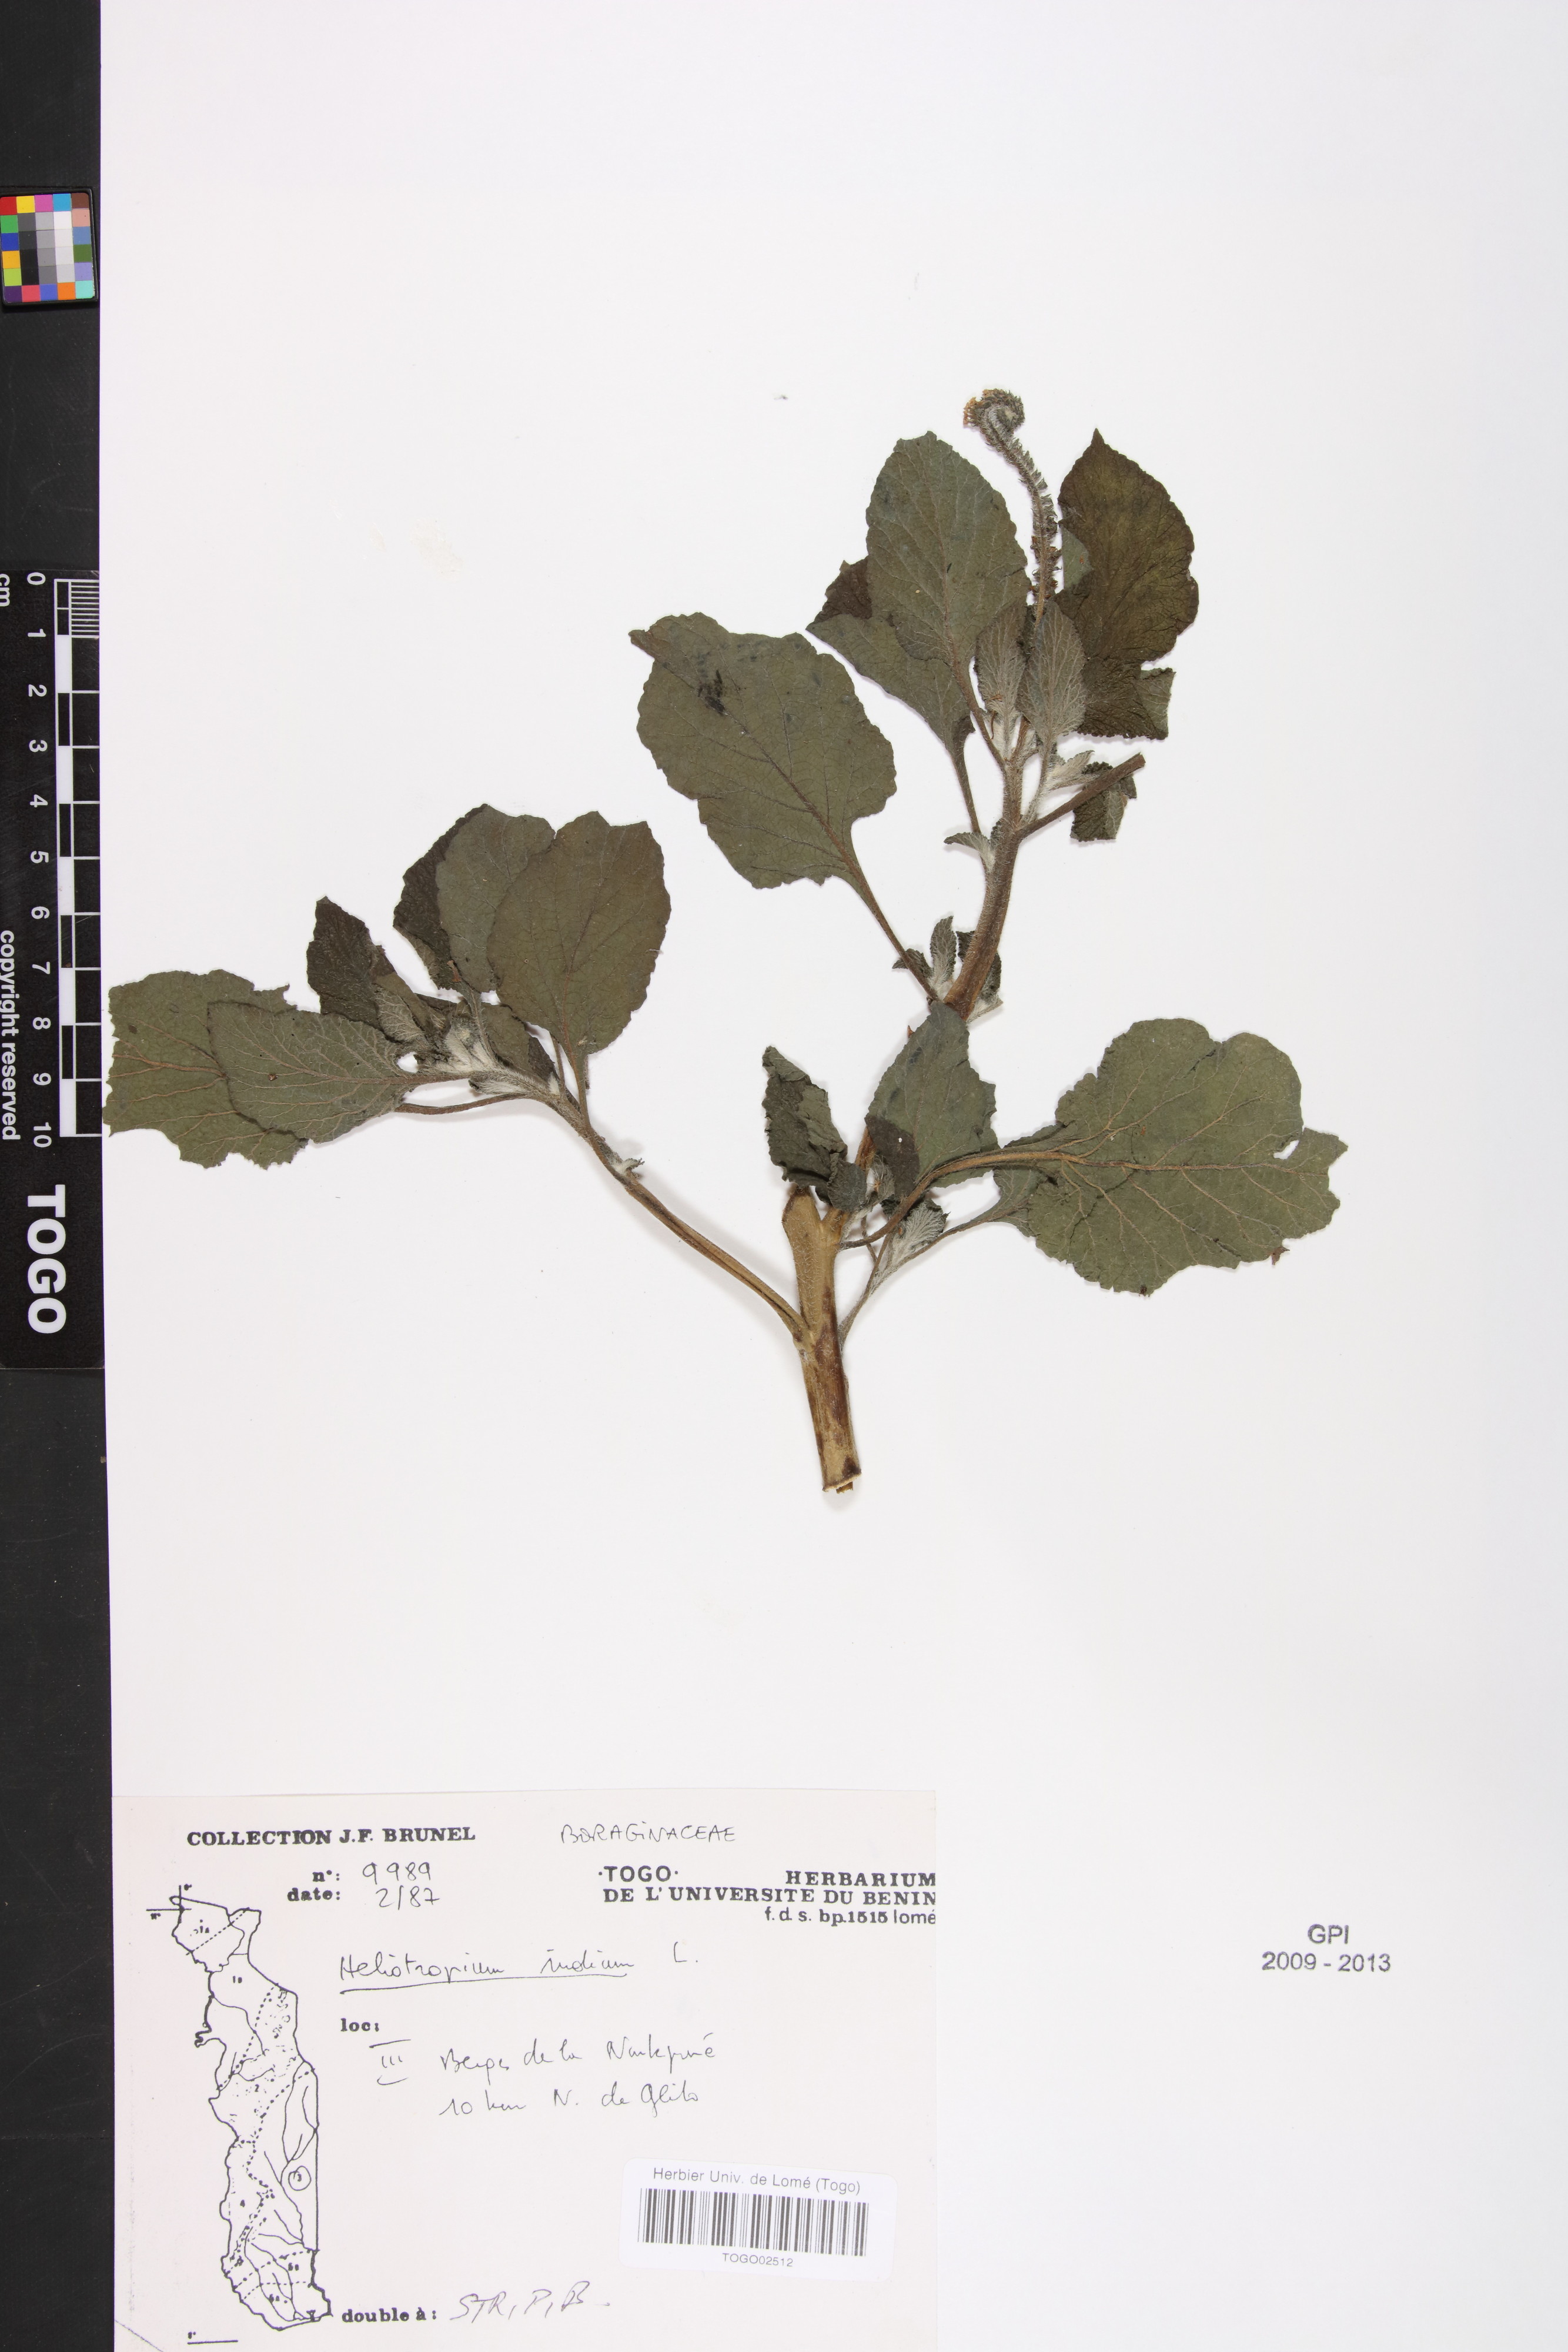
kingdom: Plantae
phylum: Tracheophyta
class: Magnoliopsida
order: Boraginales
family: Heliotropiaceae
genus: Heliotropium
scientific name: Heliotropium indicum
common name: Indian heliotrope
